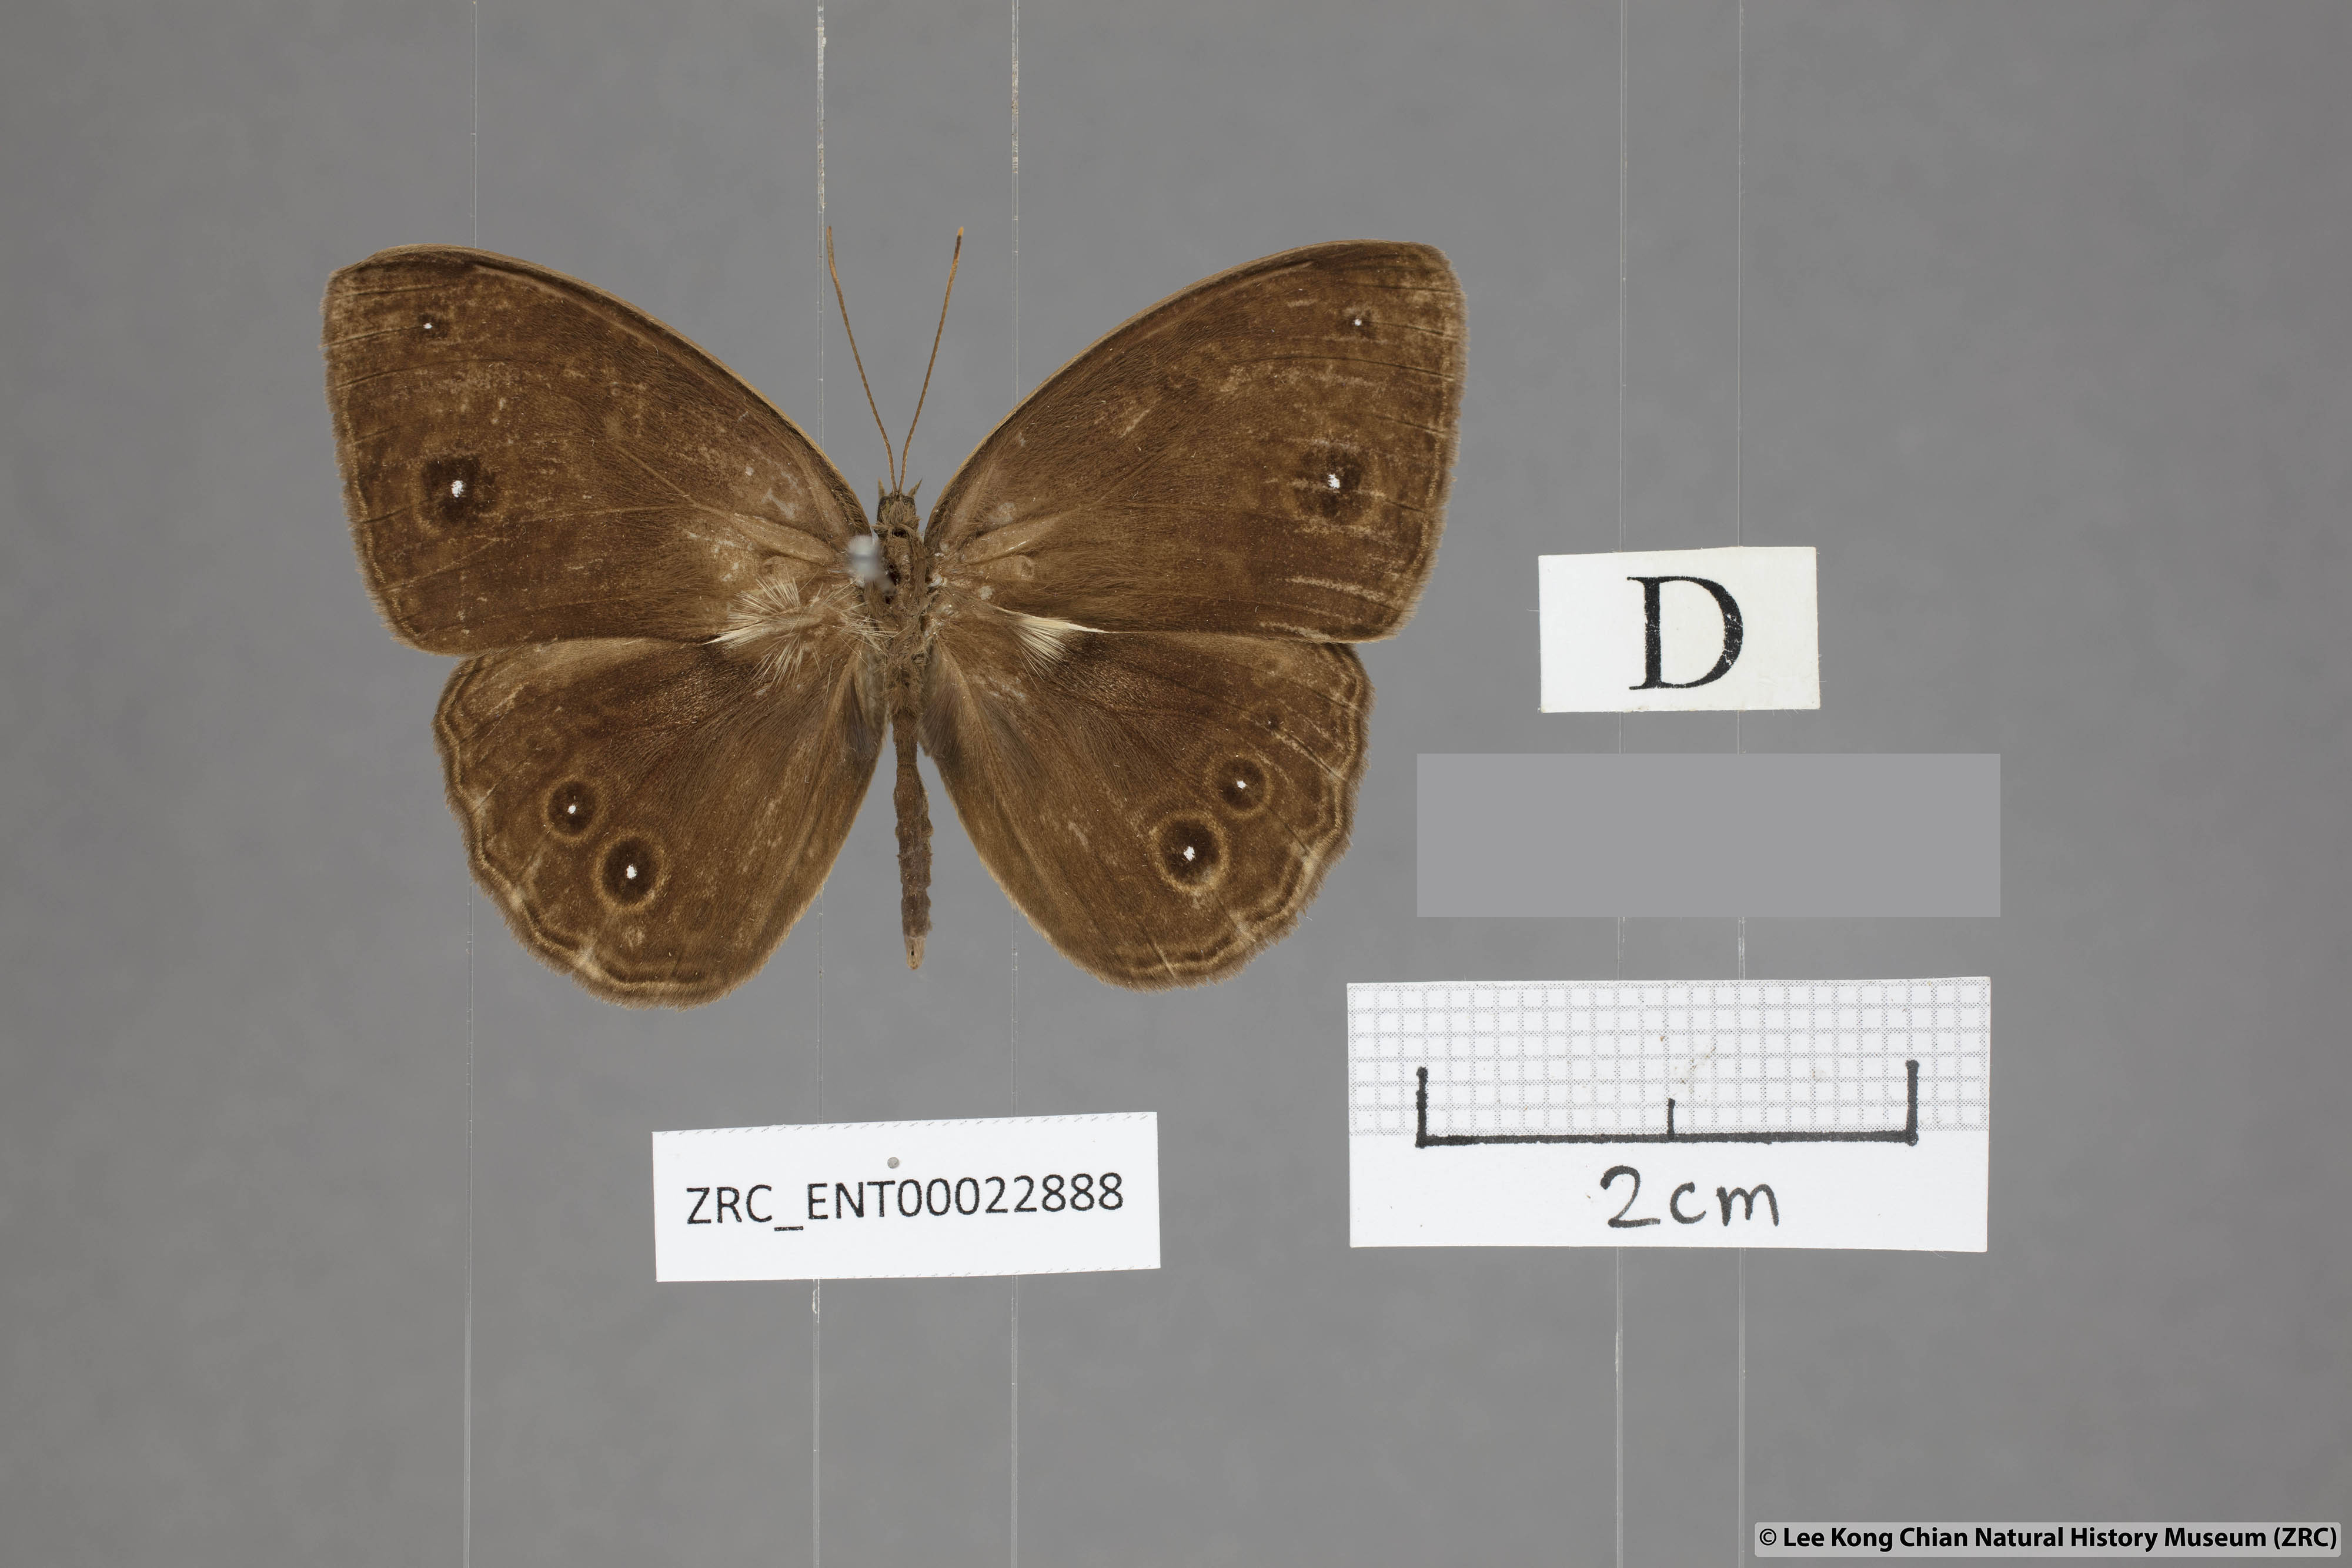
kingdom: Animalia
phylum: Arthropoda
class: Insecta
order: Lepidoptera
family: Nymphalidae
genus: Mycalesis
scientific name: Mycalesis dohertyi
